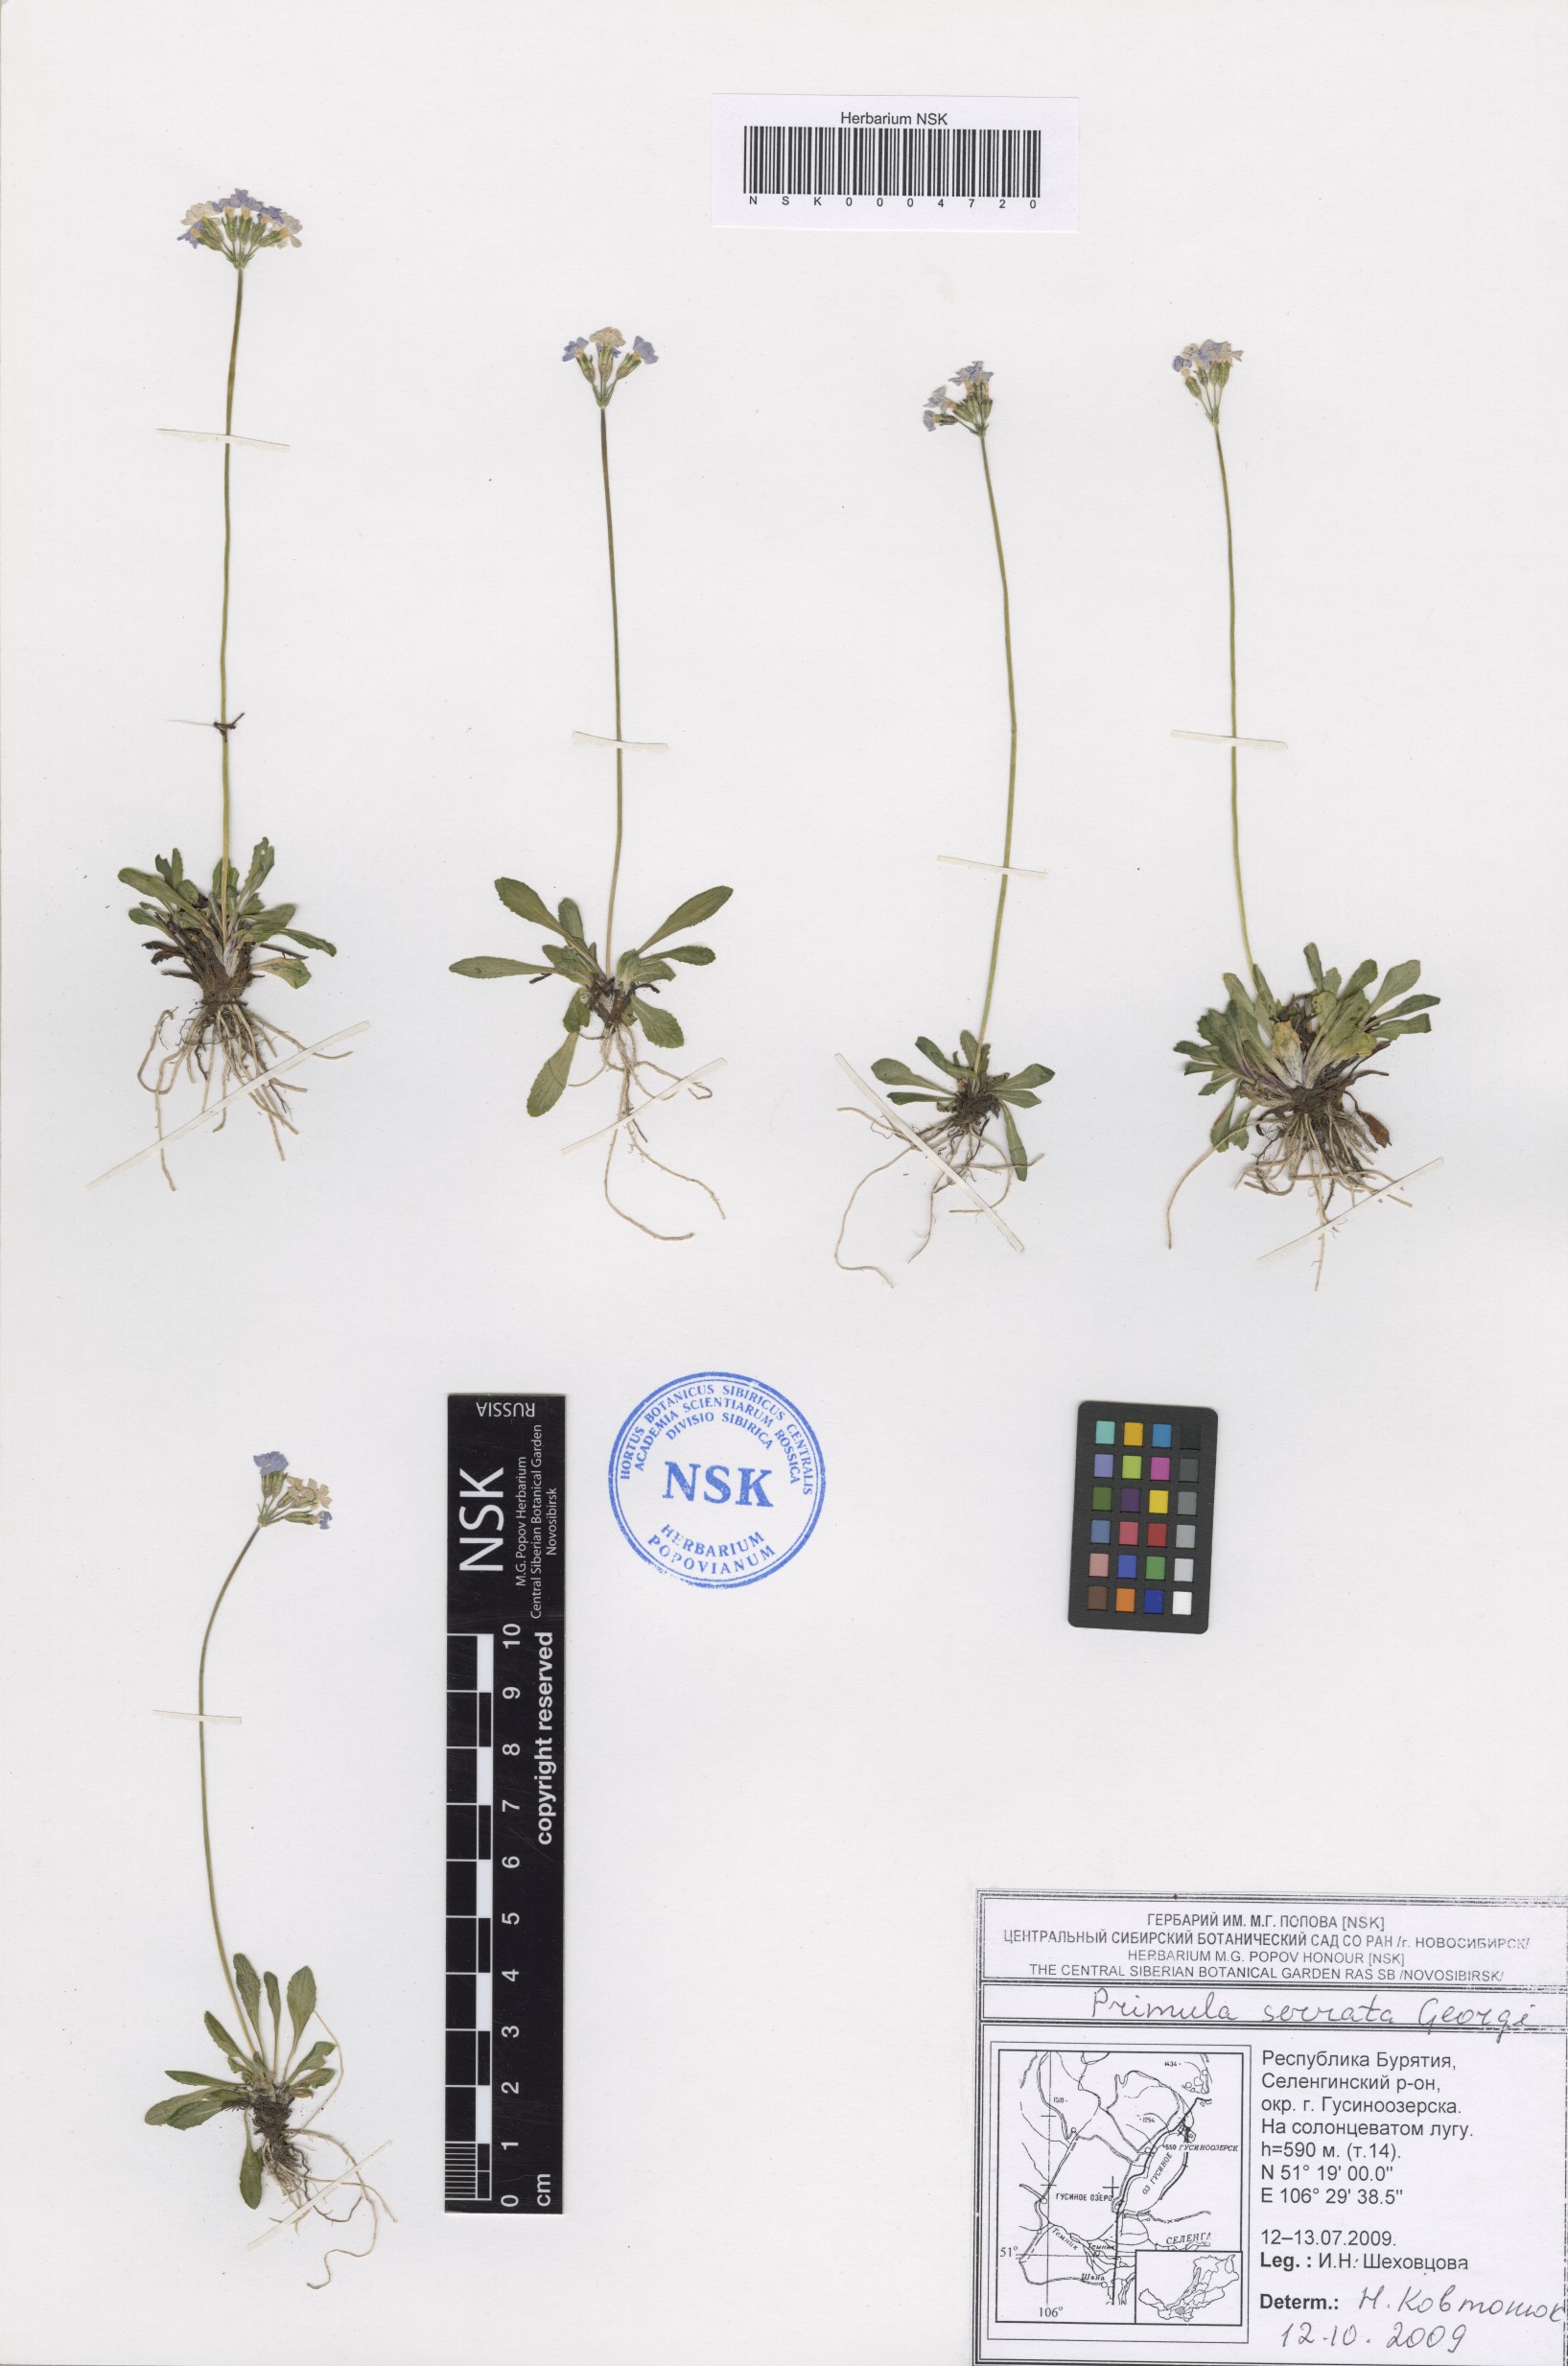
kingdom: Plantae
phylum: Tracheophyta
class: Magnoliopsida
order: Ericales
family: Primulaceae
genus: Primula
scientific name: Primula serrata
